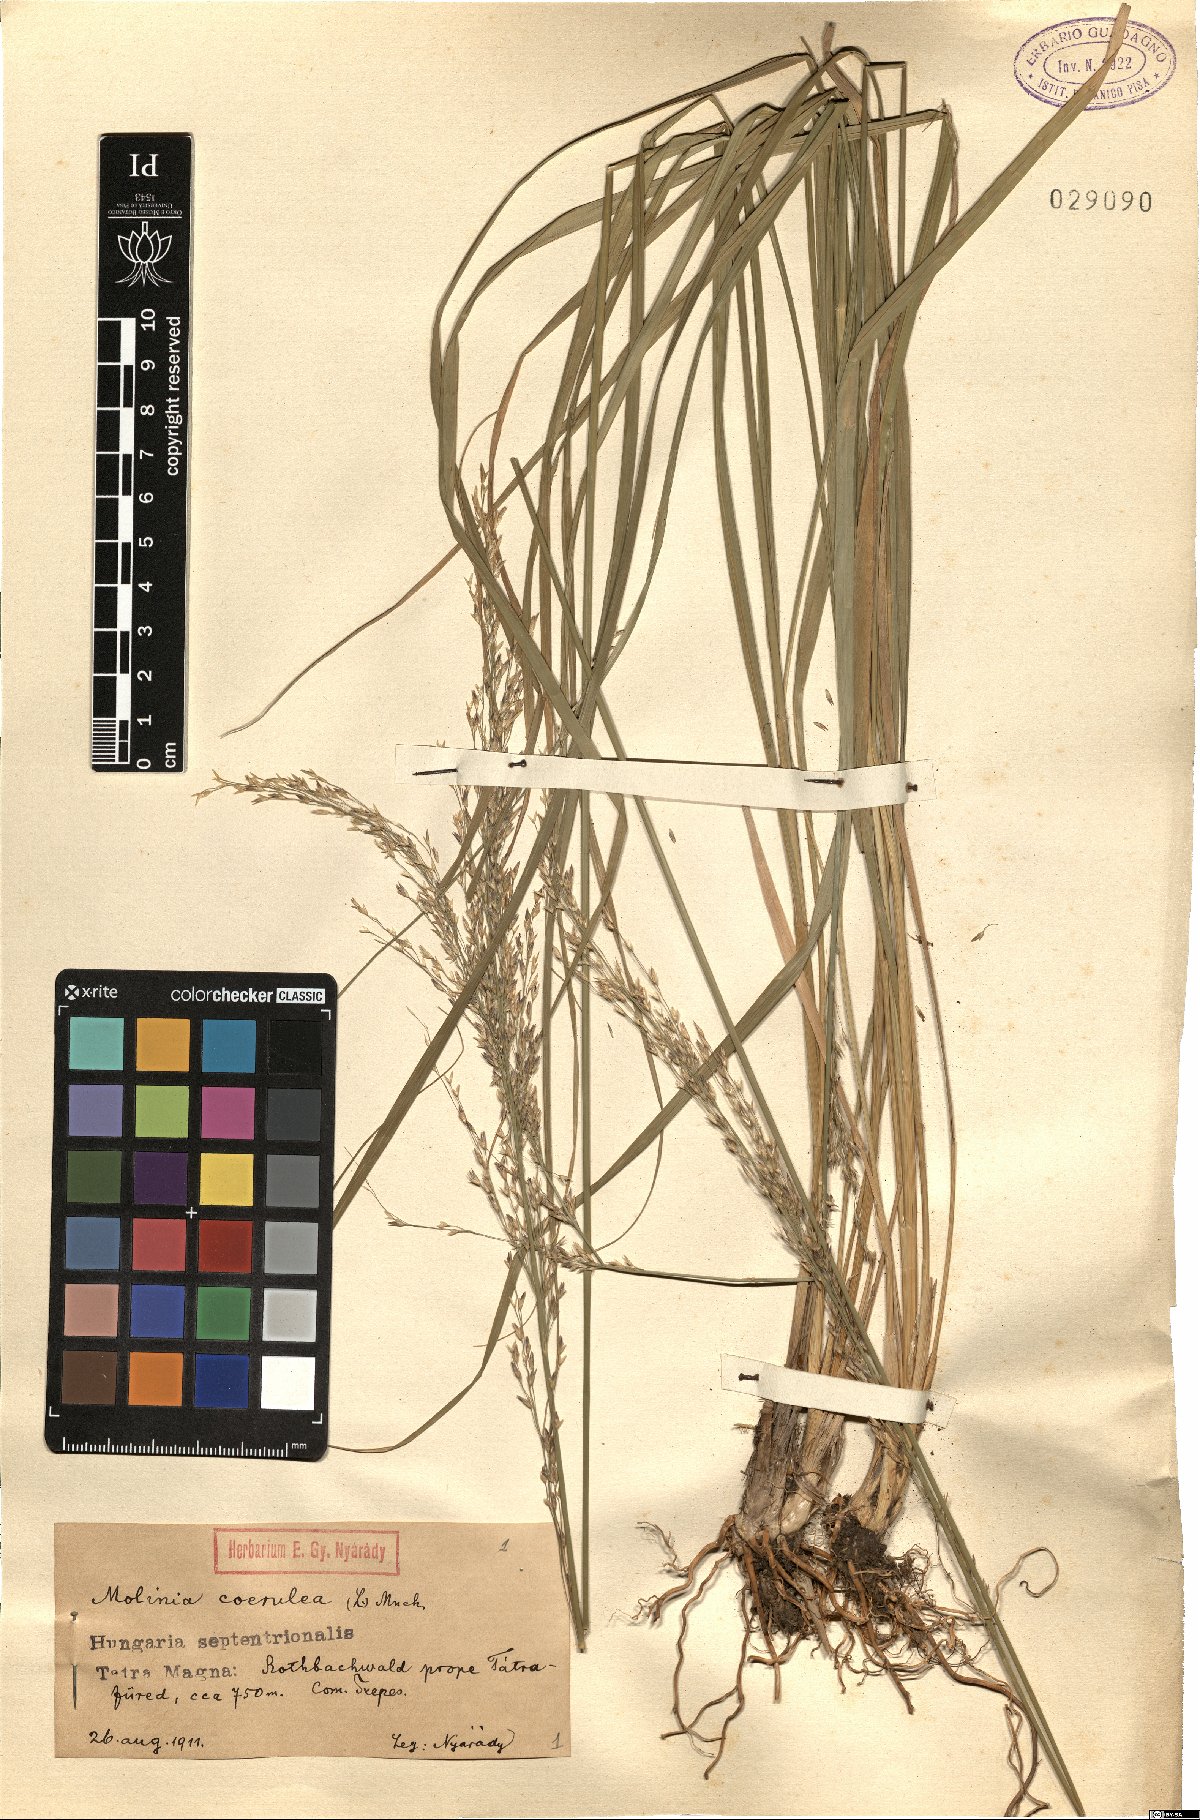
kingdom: Plantae
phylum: Tracheophyta
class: Liliopsida
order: Poales
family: Poaceae
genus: Molinia
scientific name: Molinia caerulea
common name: Purple moor-grass
